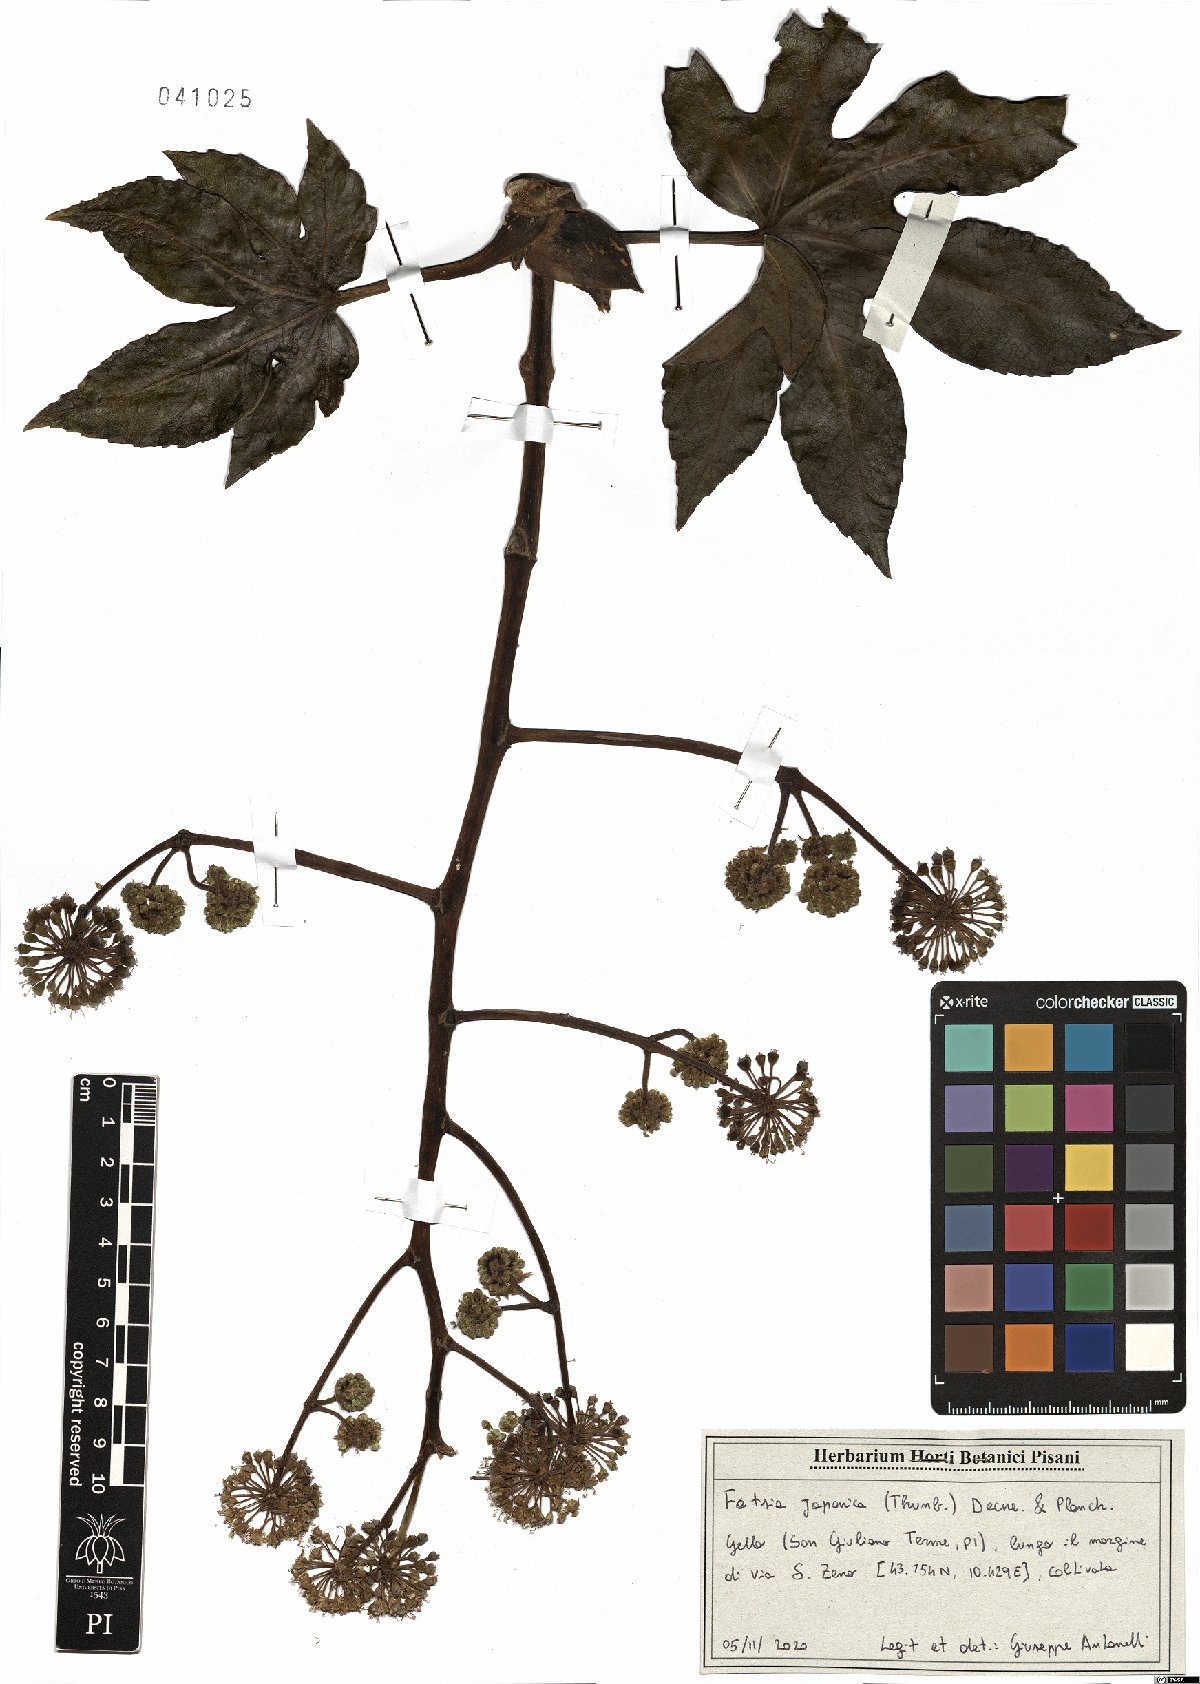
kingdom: Plantae
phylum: Tracheophyta
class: Magnoliopsida
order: Apiales
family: Araliaceae
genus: Fatsia
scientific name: Fatsia japonica
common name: Fatsia
